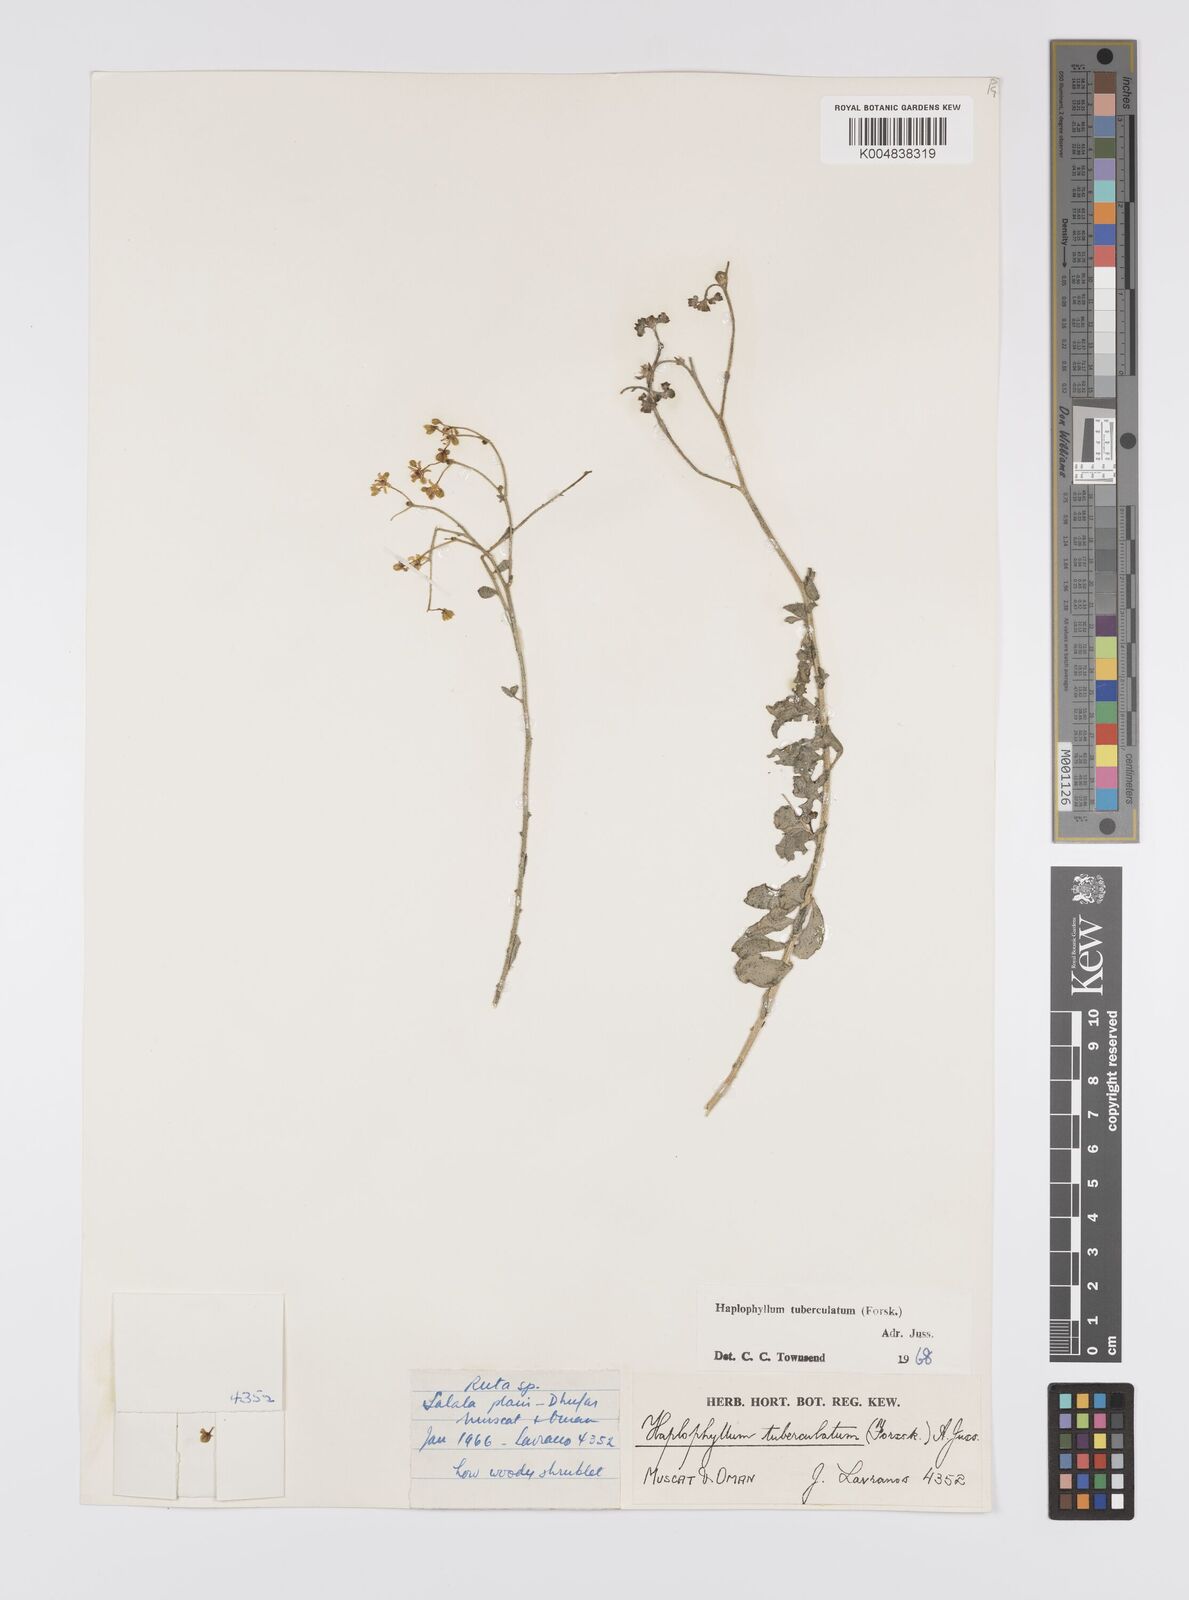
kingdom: Plantae
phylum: Tracheophyta
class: Magnoliopsida
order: Sapindales
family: Rutaceae
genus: Haplophyllum
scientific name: Haplophyllum tuberculatum
